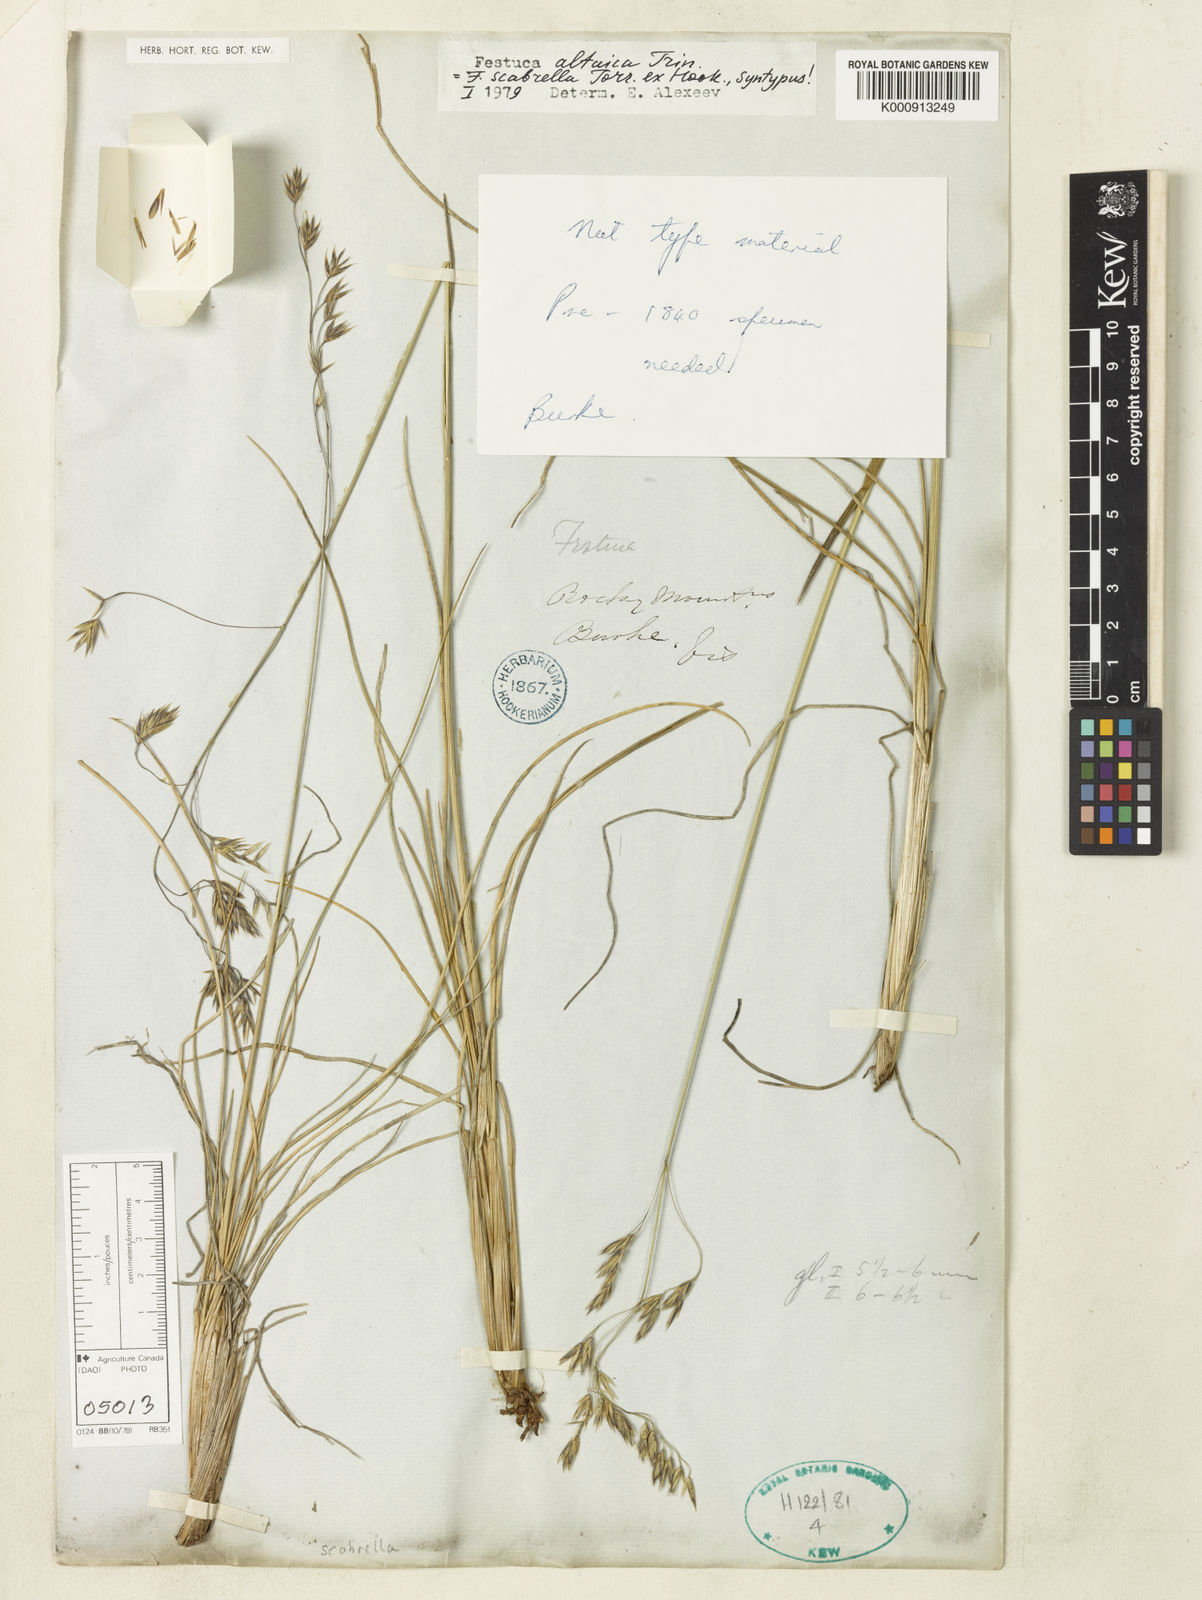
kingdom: Plantae
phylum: Tracheophyta
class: Liliopsida
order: Poales
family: Poaceae
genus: Festuca
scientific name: Festuca altaica
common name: Northern rough fescue
